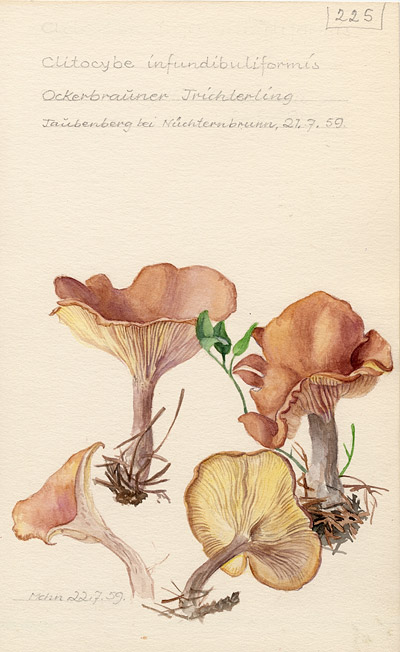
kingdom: Fungi
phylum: Basidiomycota
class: Agaricomycetes
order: Agaricales
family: Tricholomataceae
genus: Infundibulicybe
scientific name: Infundibulicybe gibba
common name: Common funnel
